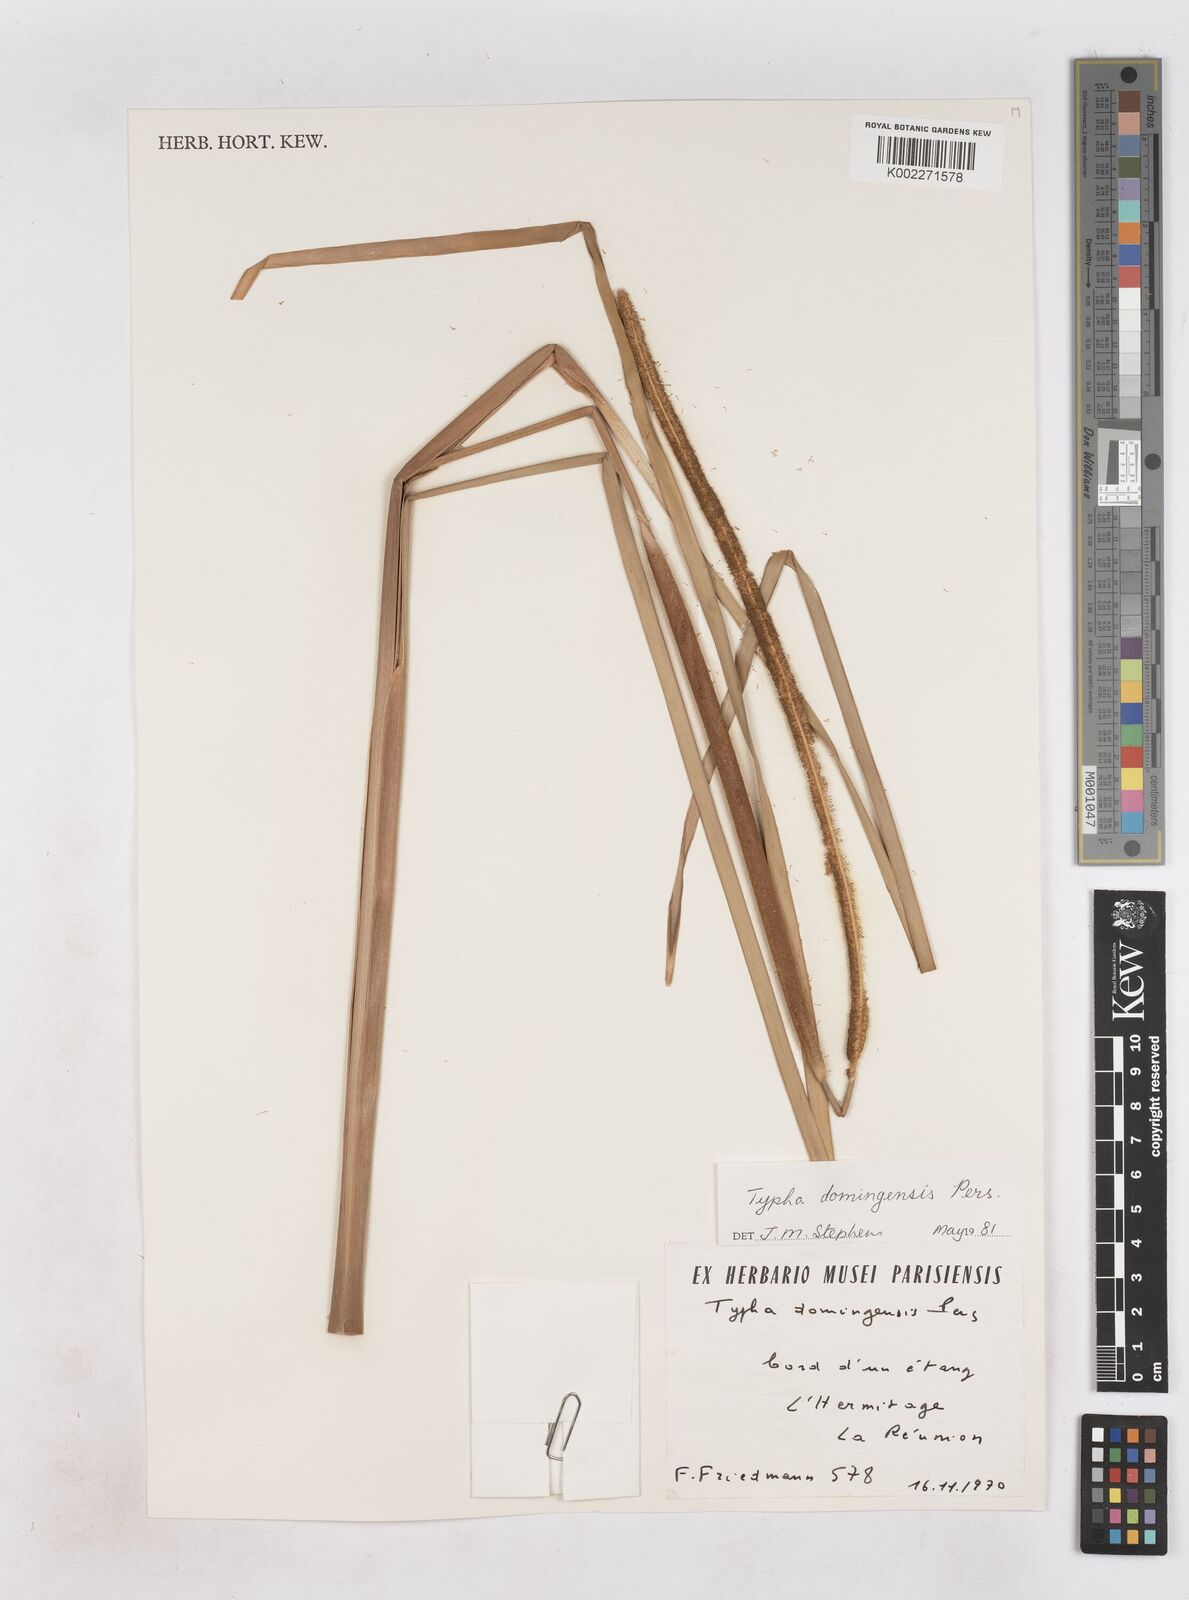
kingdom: Plantae
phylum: Tracheophyta
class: Liliopsida
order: Poales
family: Typhaceae
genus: Typha
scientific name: Typha domingensis
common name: Southern cattail
